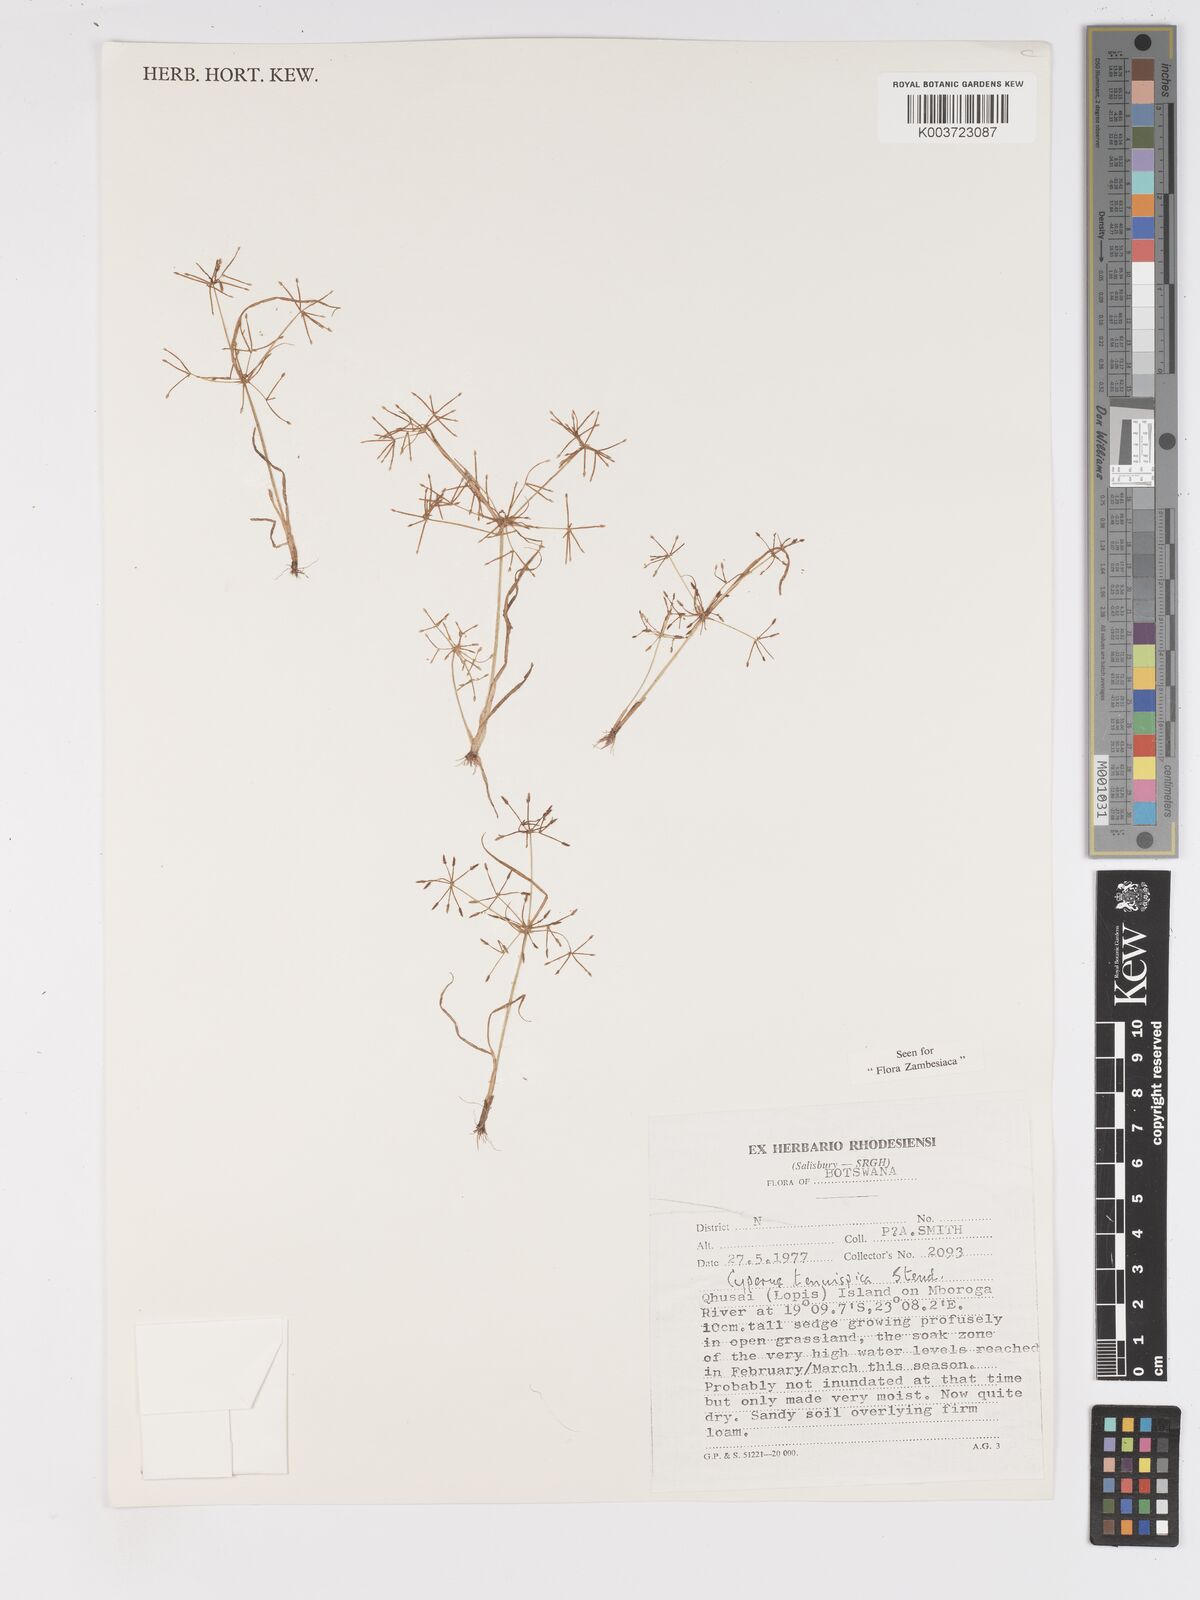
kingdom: Plantae
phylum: Tracheophyta
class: Liliopsida
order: Poales
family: Cyperaceae
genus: Cyperus
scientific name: Cyperus tenuispica
